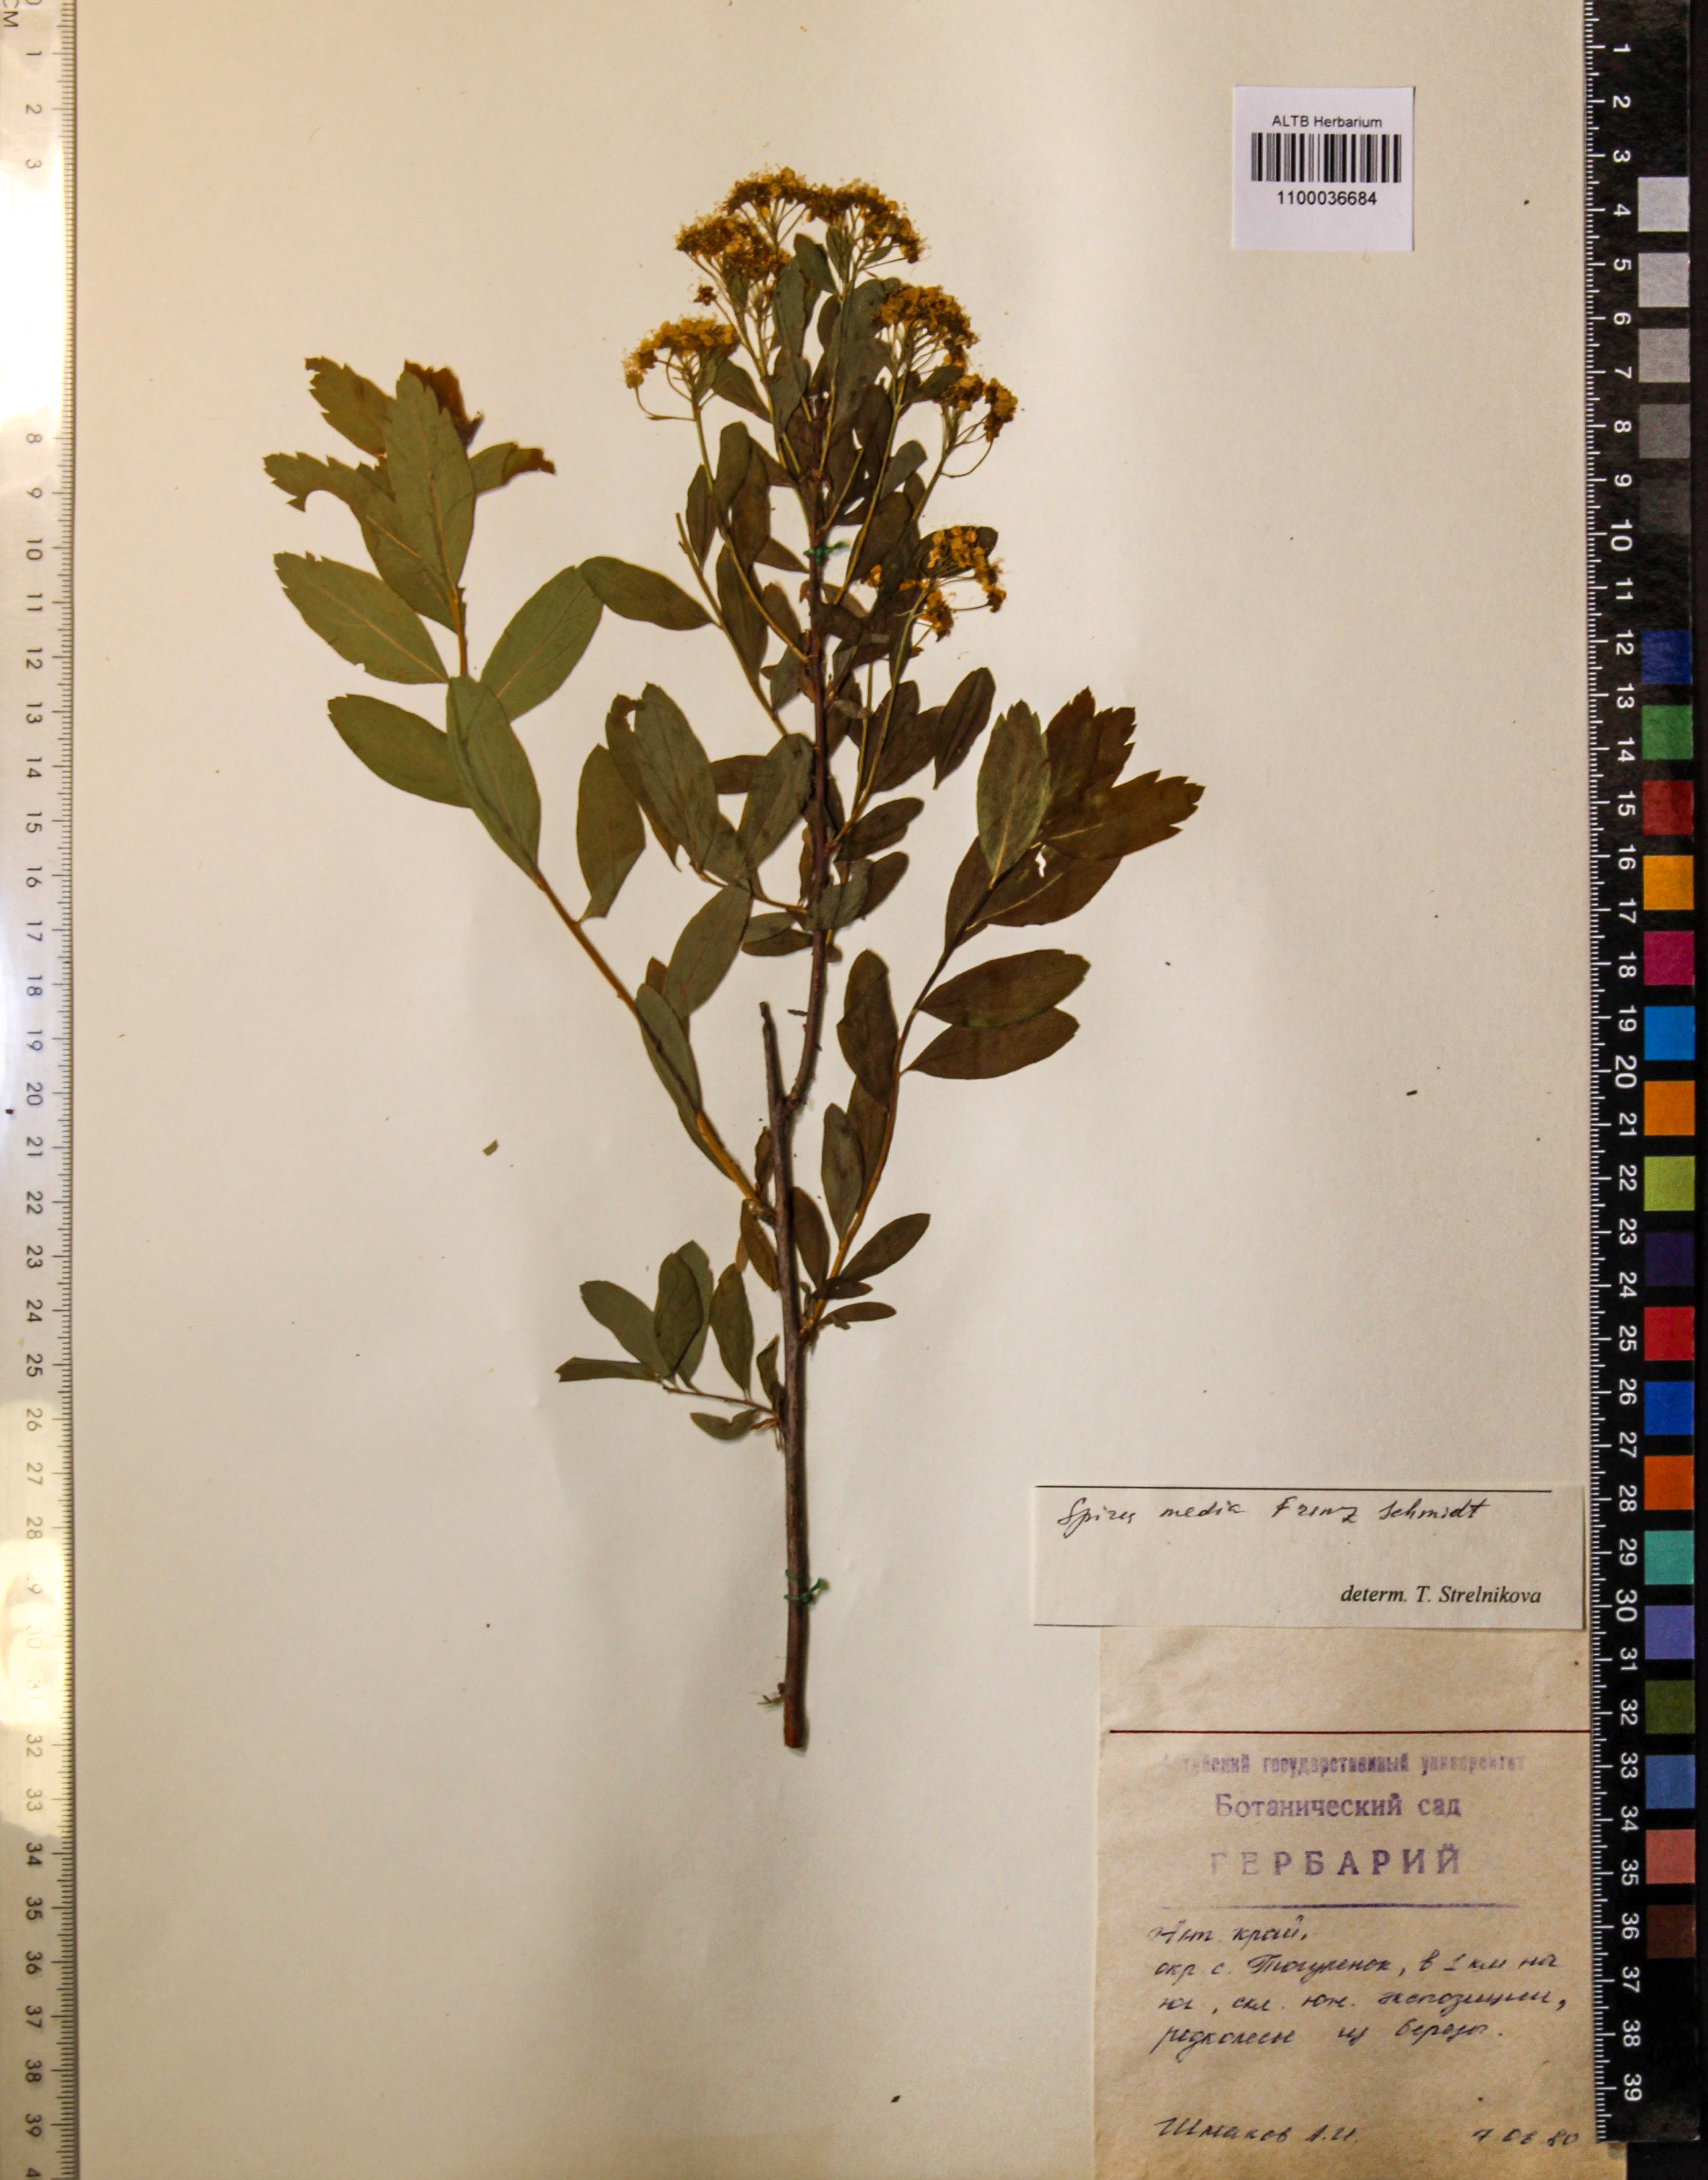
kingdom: Plantae
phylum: Tracheophyta
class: Magnoliopsida
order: Rosales
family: Rosaceae
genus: Spiraea
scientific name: Spiraea media
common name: Russian spiraea
